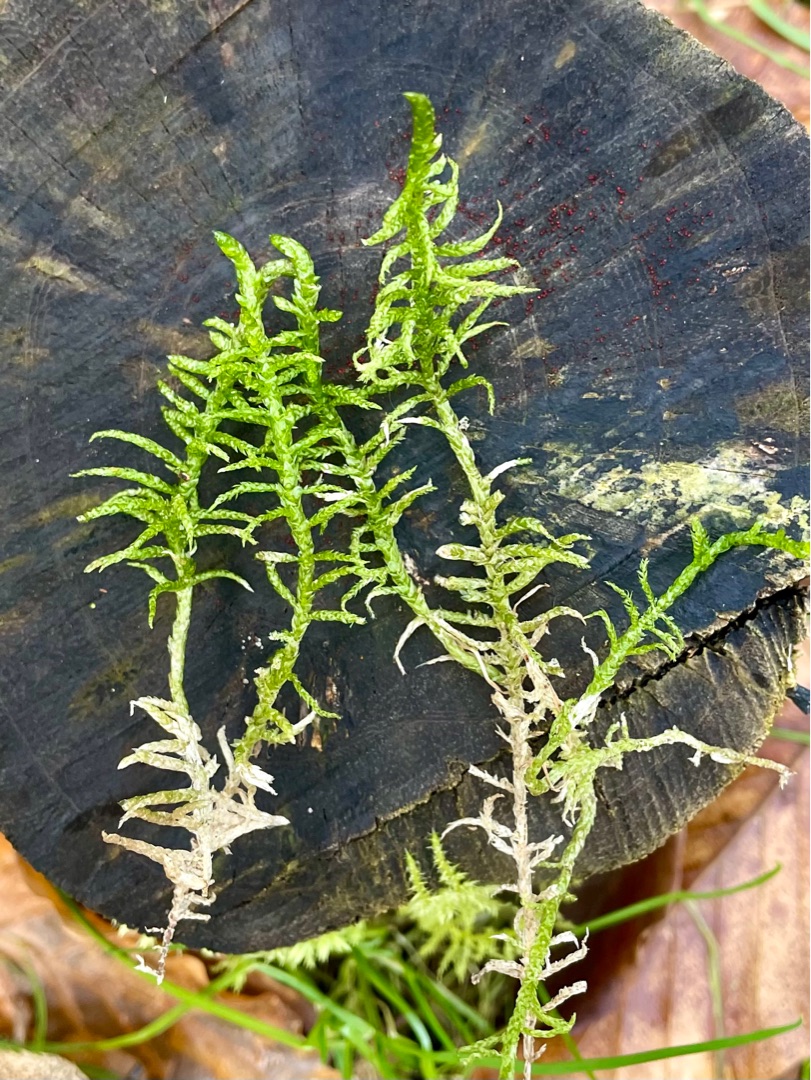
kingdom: Plantae
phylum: Bryophyta
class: Bryopsida
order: Hypnales
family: Brachytheciaceae
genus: Pseudoscleropodium
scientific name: Pseudoscleropodium purum
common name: Hulbladet fedtmos
